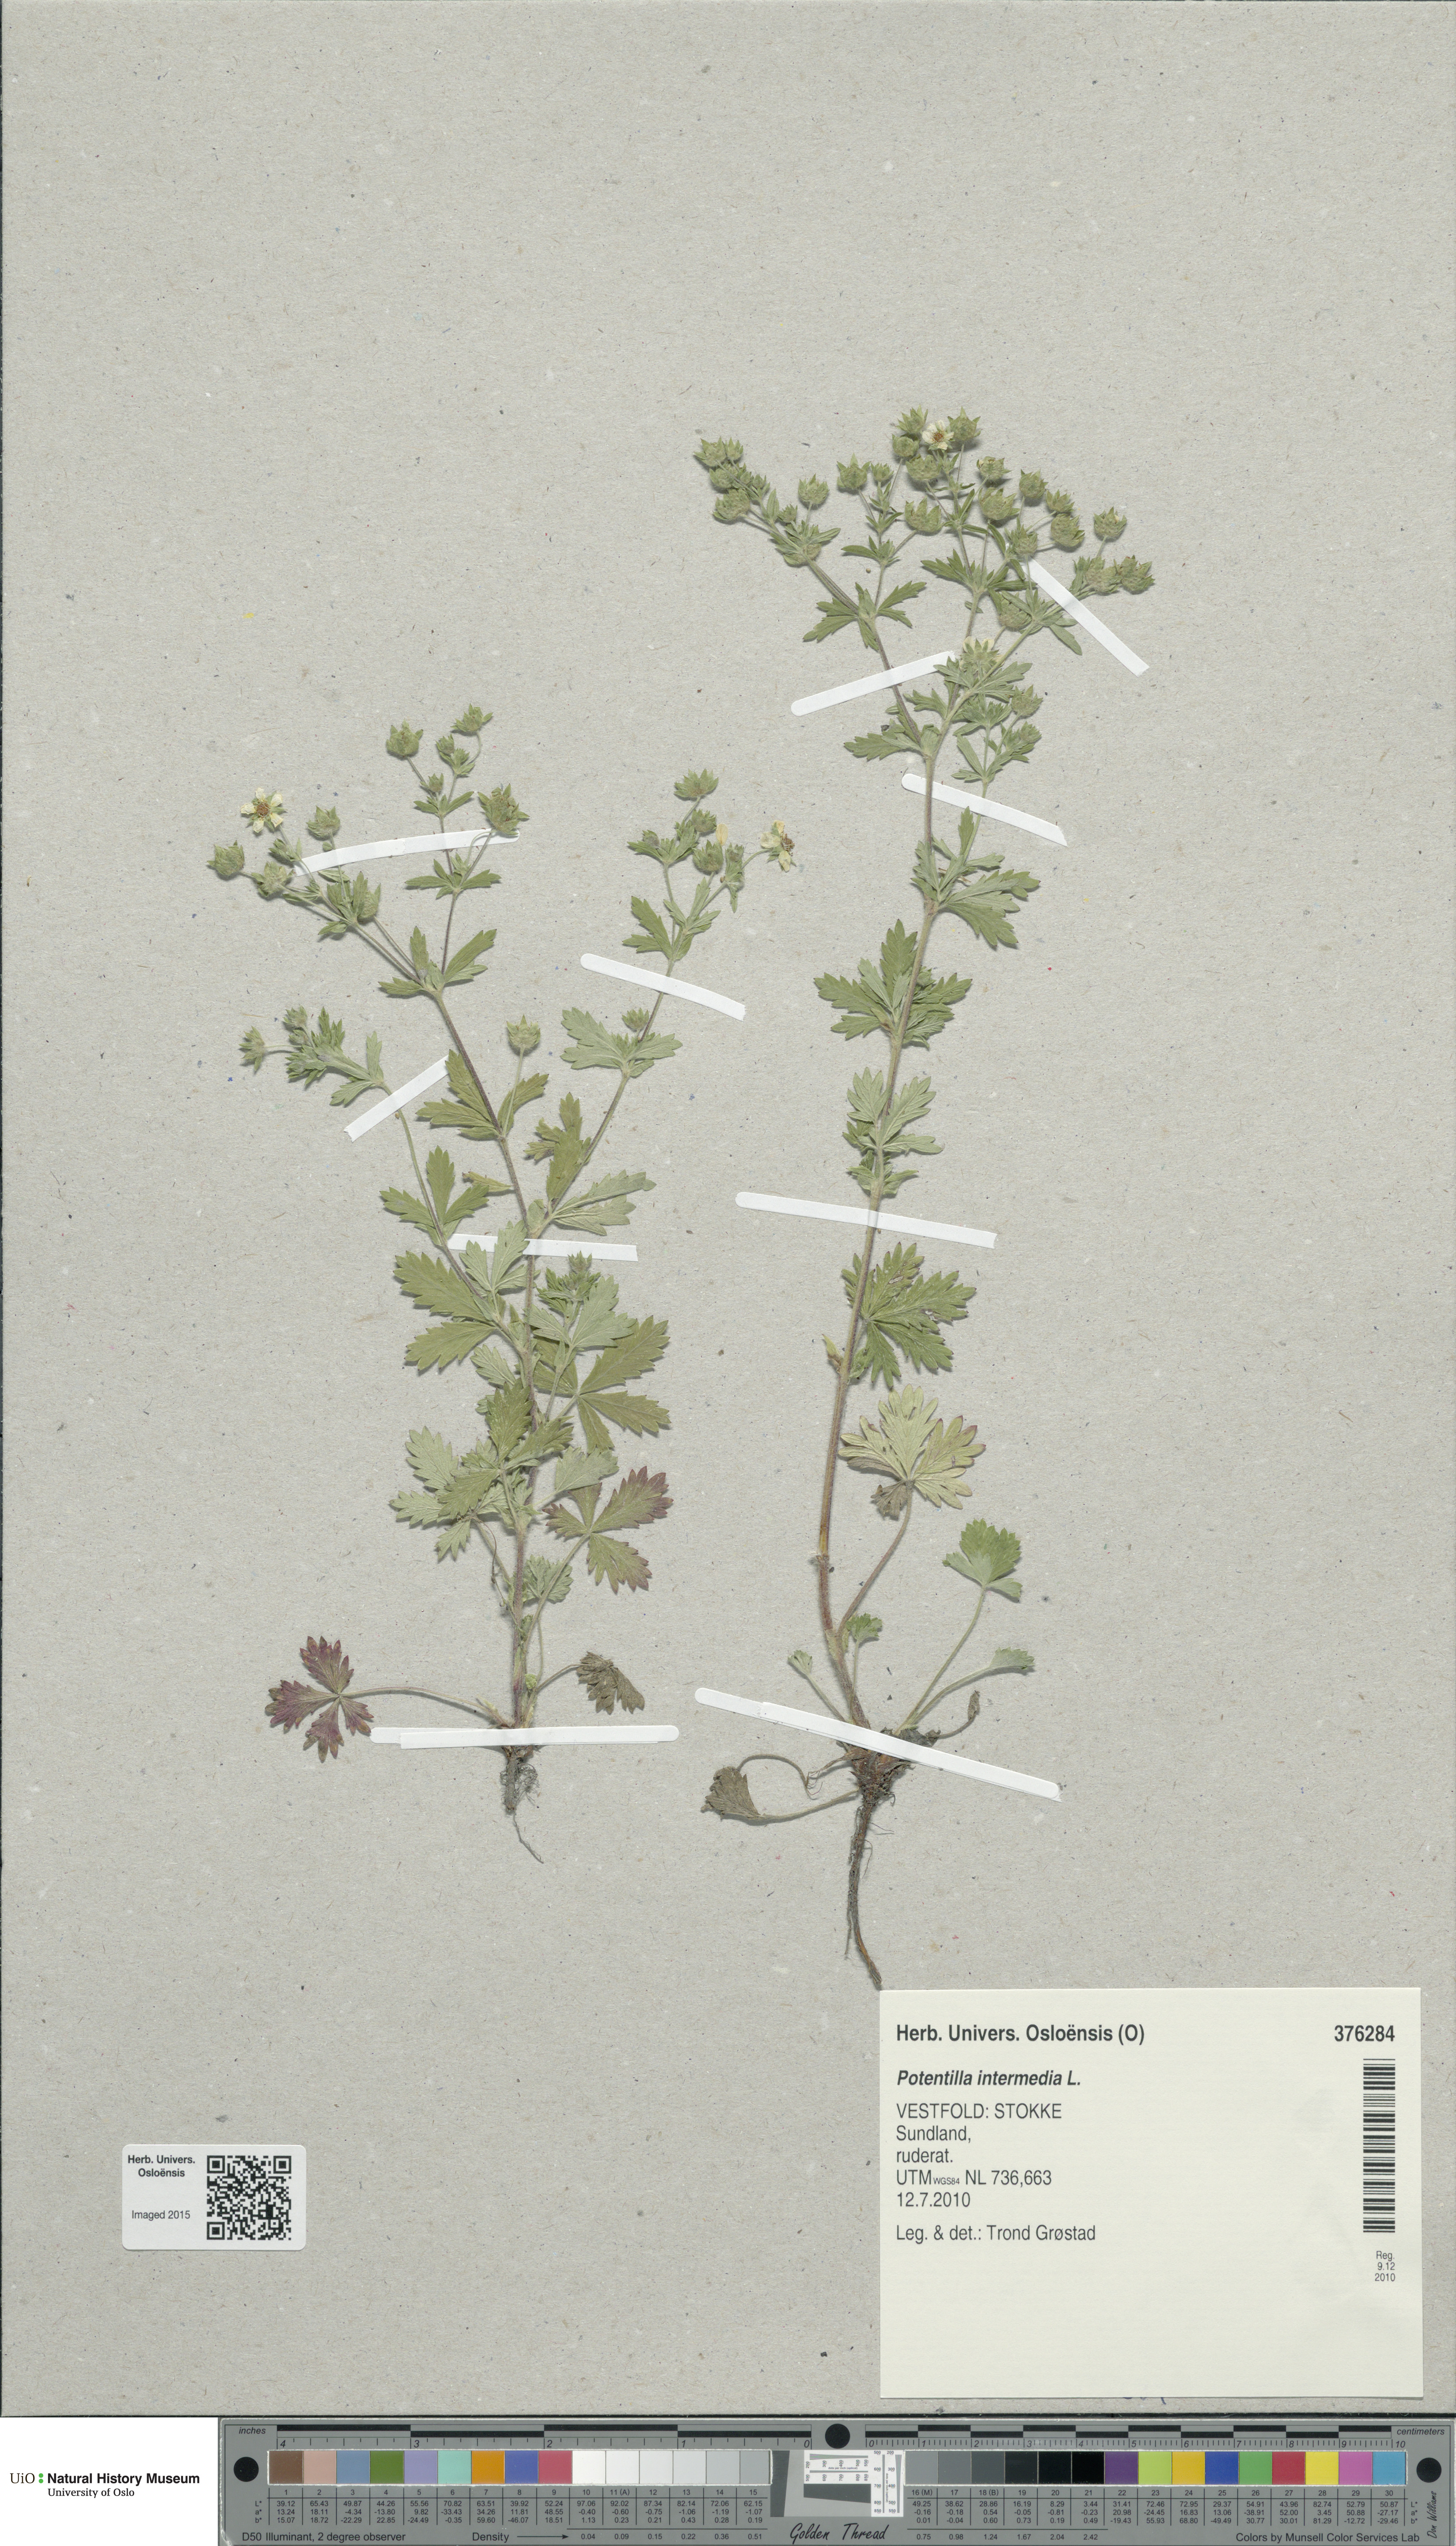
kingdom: Plantae
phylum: Tracheophyta
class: Magnoliopsida
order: Rosales
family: Rosaceae
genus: Potentilla
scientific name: Potentilla intermedia
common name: Downy cinquefoil
